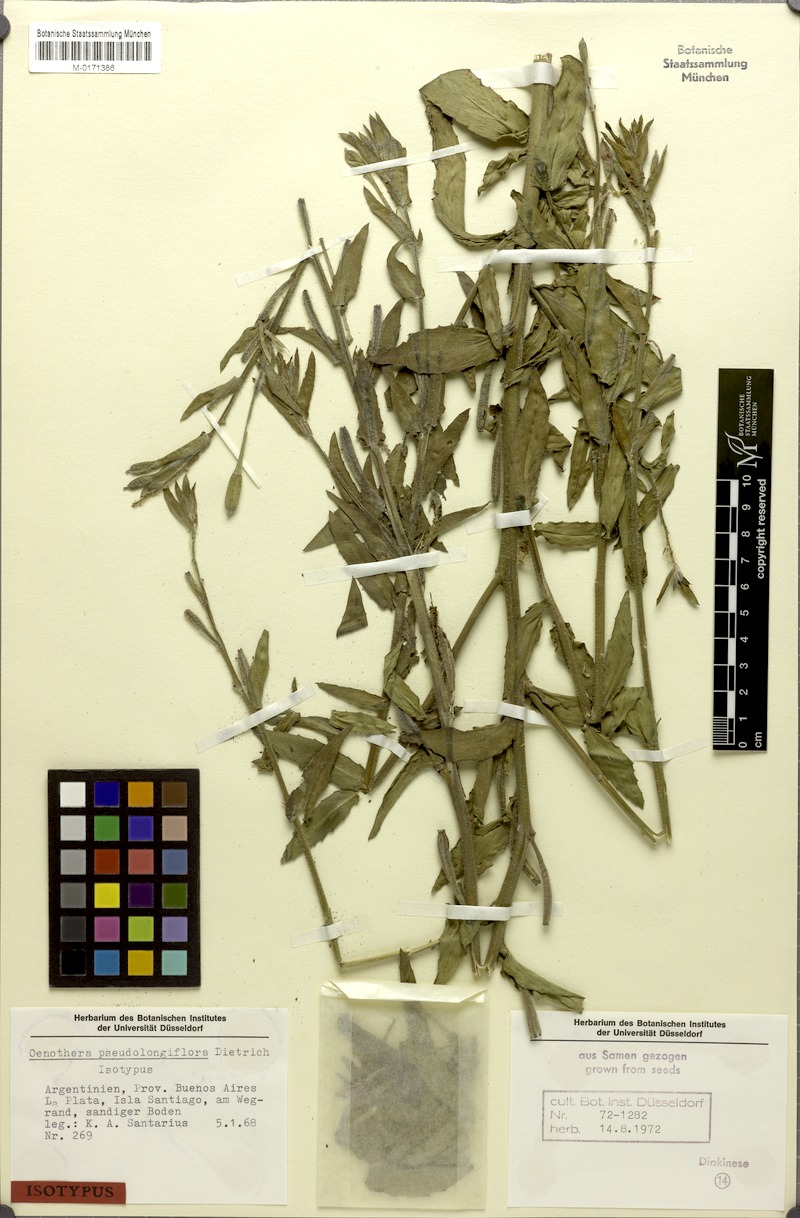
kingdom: Plantae
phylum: Tracheophyta
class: Magnoliopsida
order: Myrtales
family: Onagraceae
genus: Oenothera
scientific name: Oenothera parodiana
